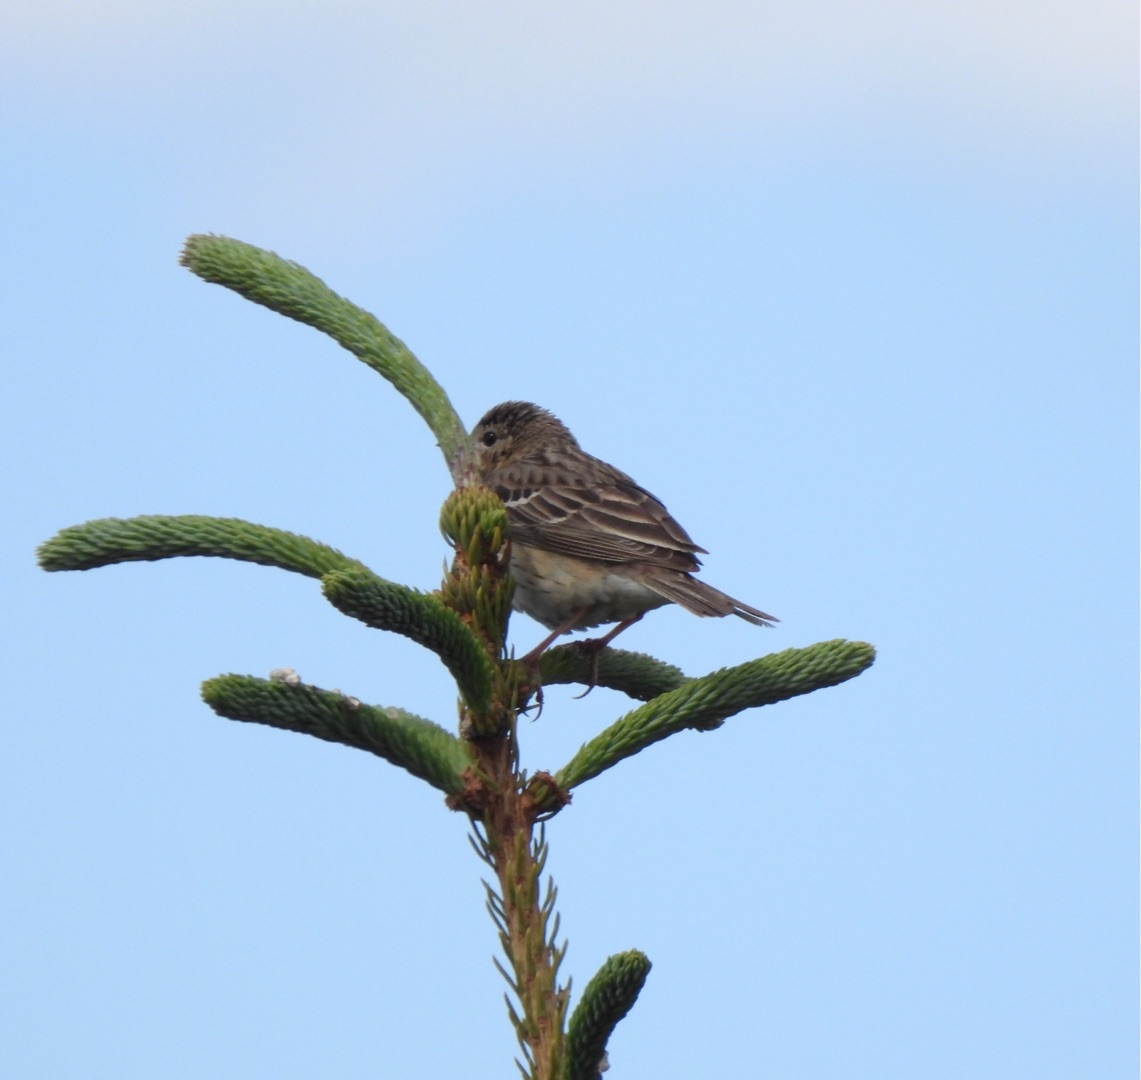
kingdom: Animalia
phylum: Chordata
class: Aves
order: Passeriformes
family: Motacillidae
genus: Anthus
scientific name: Anthus trivialis
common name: Skovpiber
